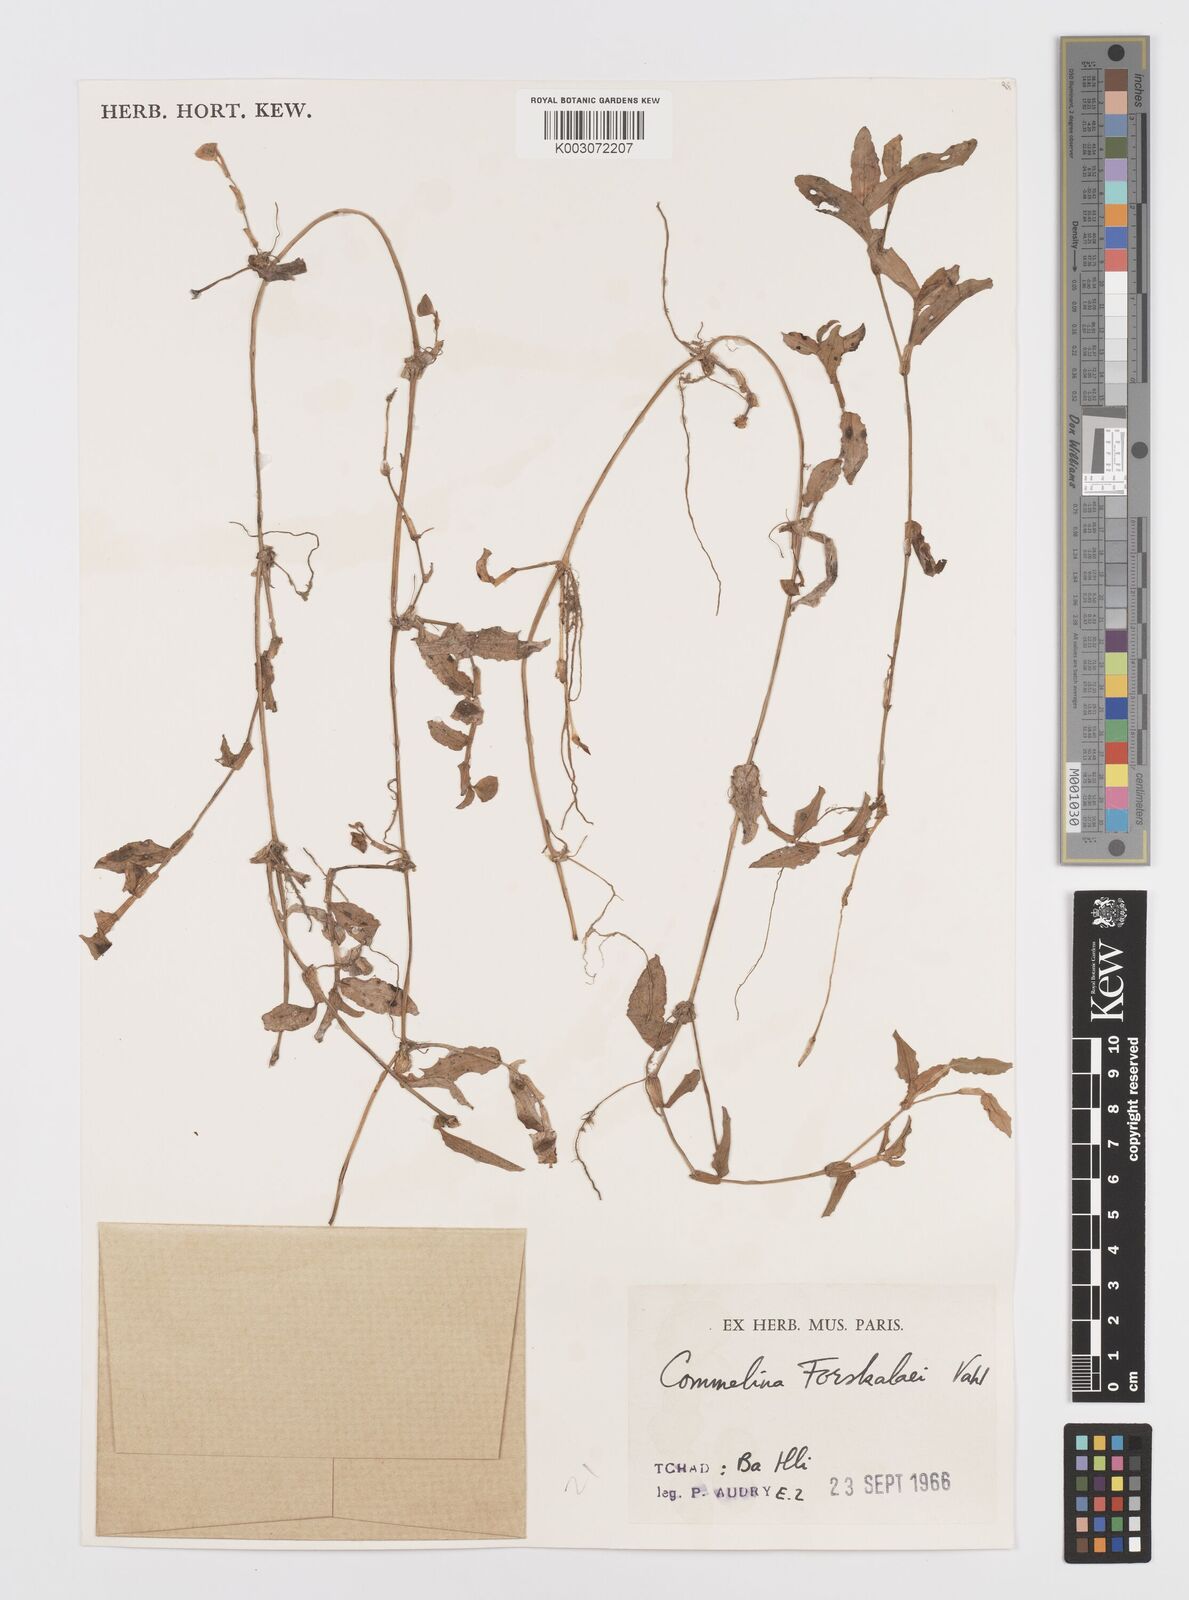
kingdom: Plantae
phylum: Tracheophyta
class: Liliopsida
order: Commelinales
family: Commelinaceae
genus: Commelina
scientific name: Commelina forskaolii
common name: Rat's ear
